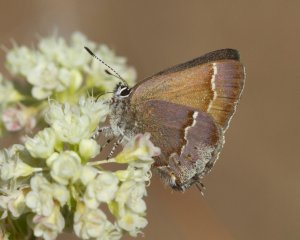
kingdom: Animalia
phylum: Arthropoda
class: Insecta
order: Lepidoptera
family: Lycaenidae
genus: Mitoura
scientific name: Mitoura gryneus
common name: Juniper Hairstreak
